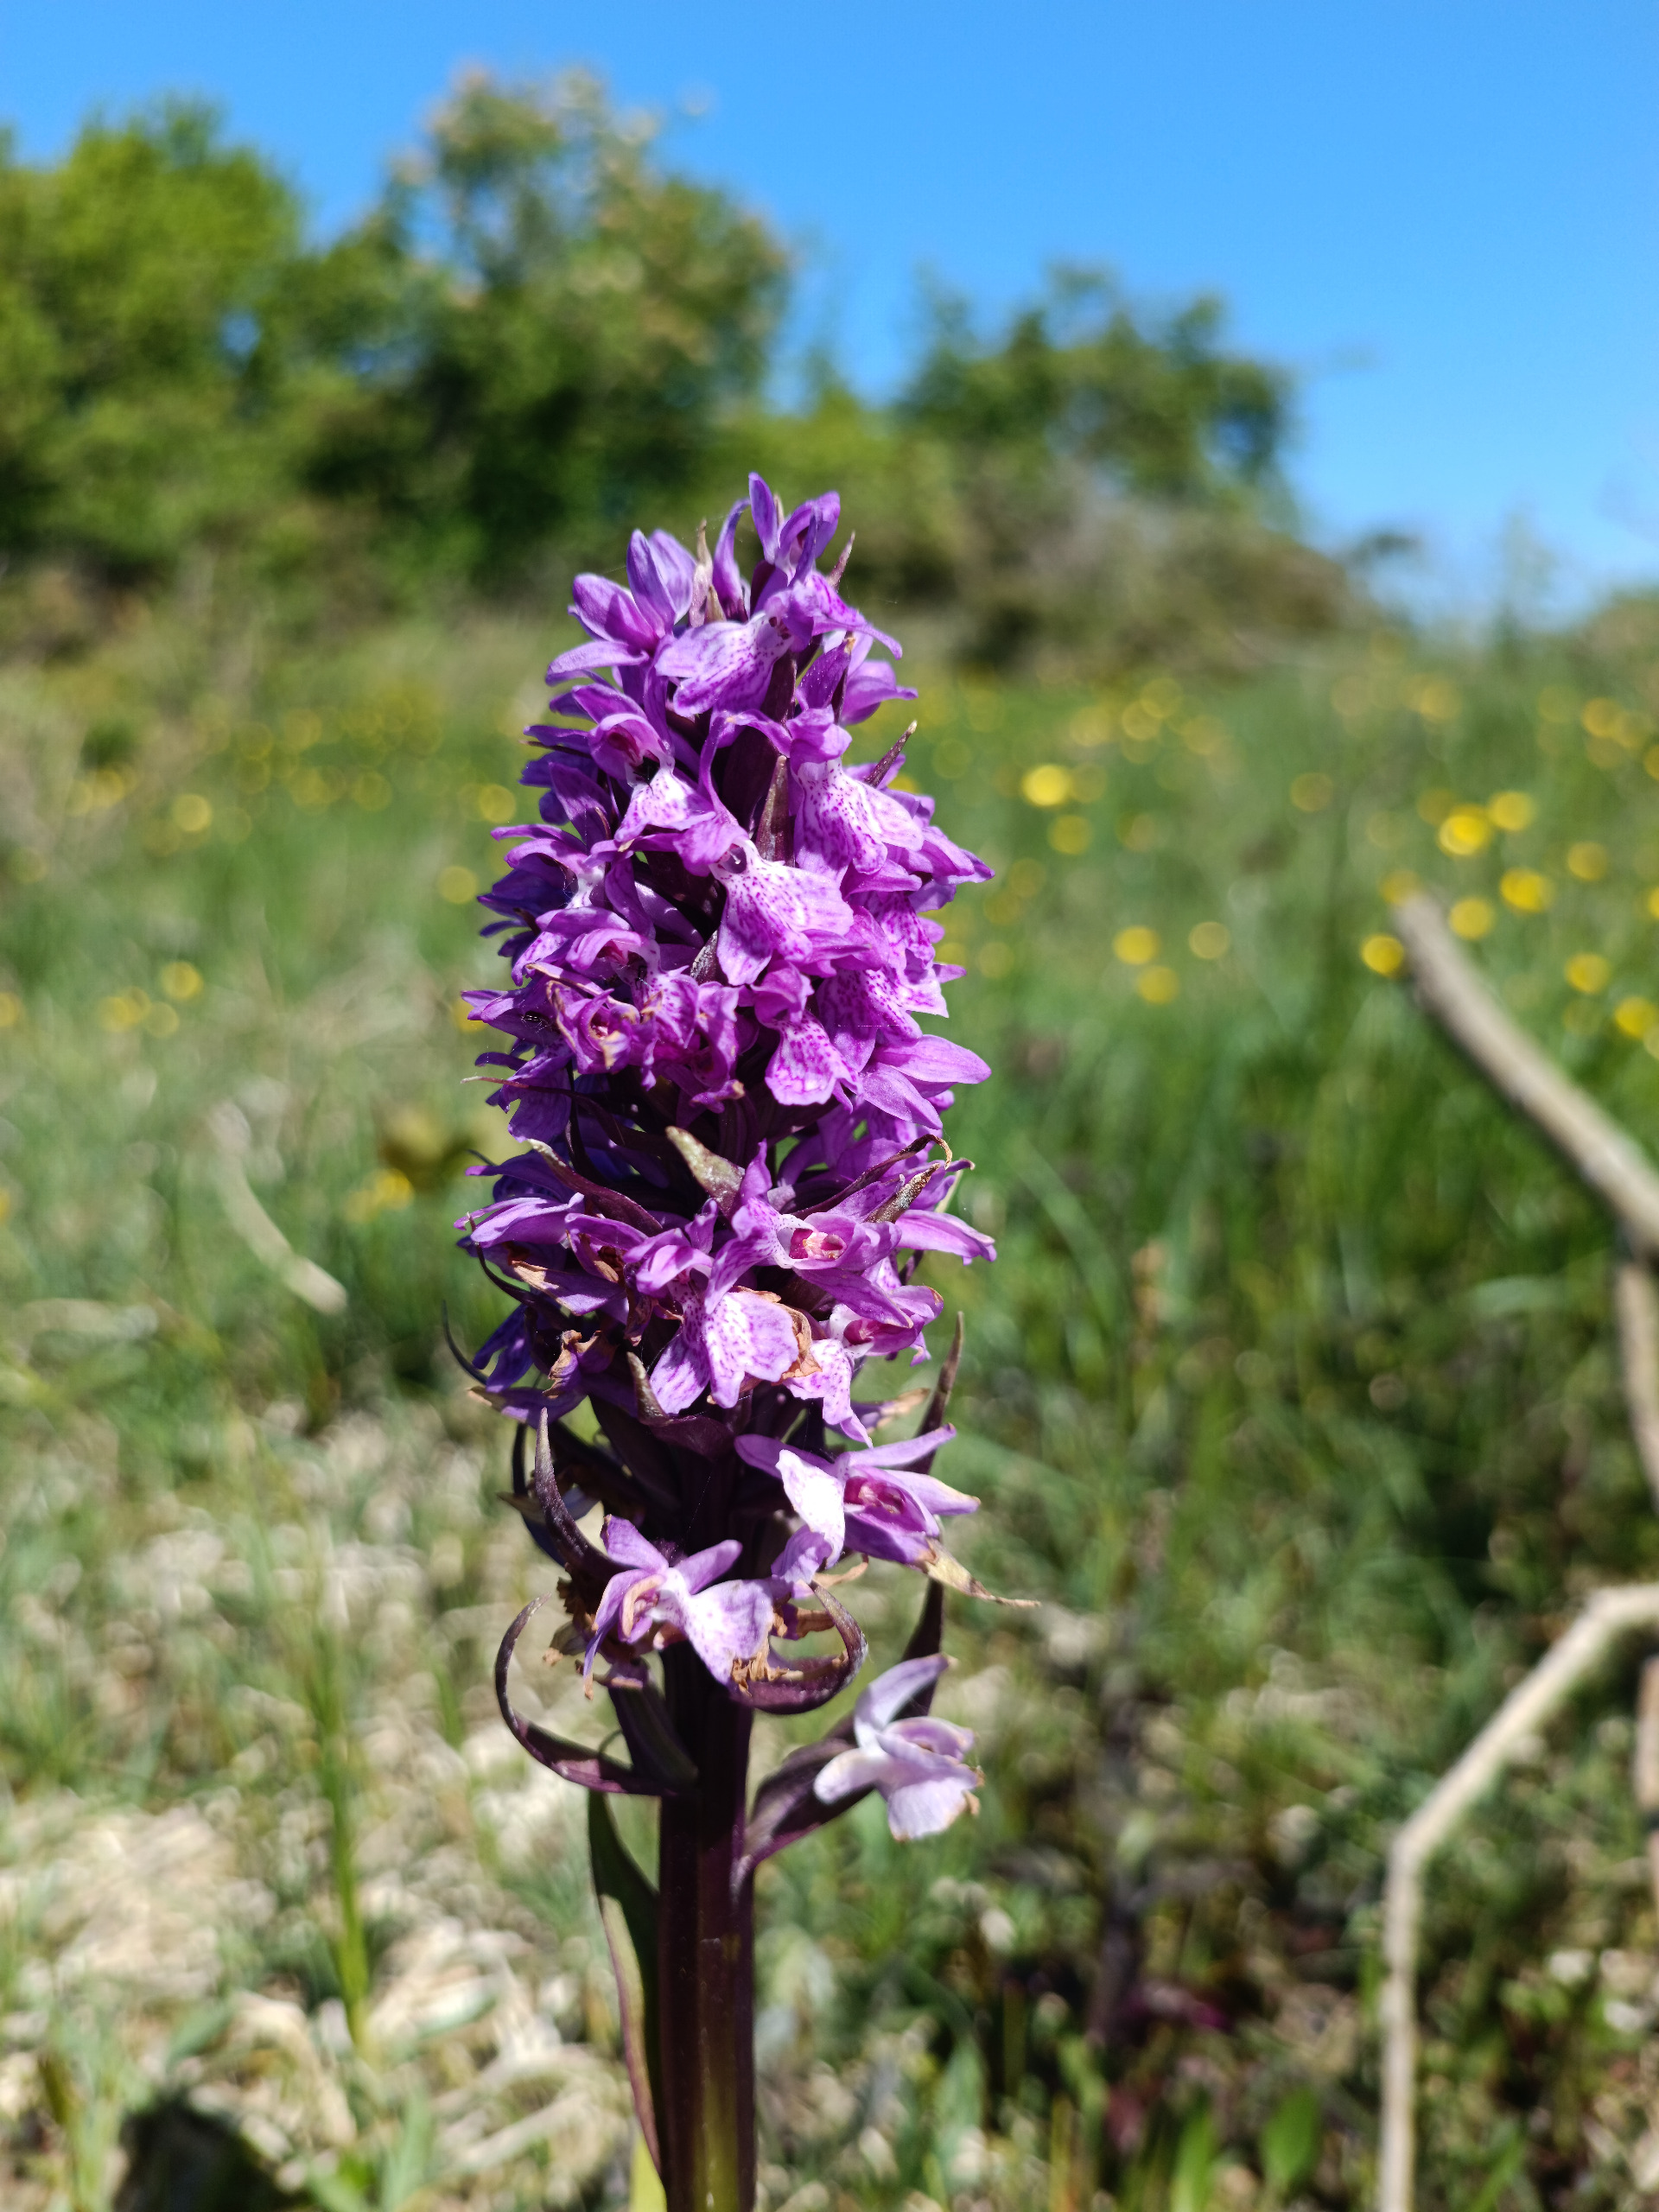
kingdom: Plantae
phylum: Tracheophyta
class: Liliopsida
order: Asparagales
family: Orchidaceae
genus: Dactylorhiza
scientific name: Dactylorhiza majalis
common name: Maj-gøgeurt
